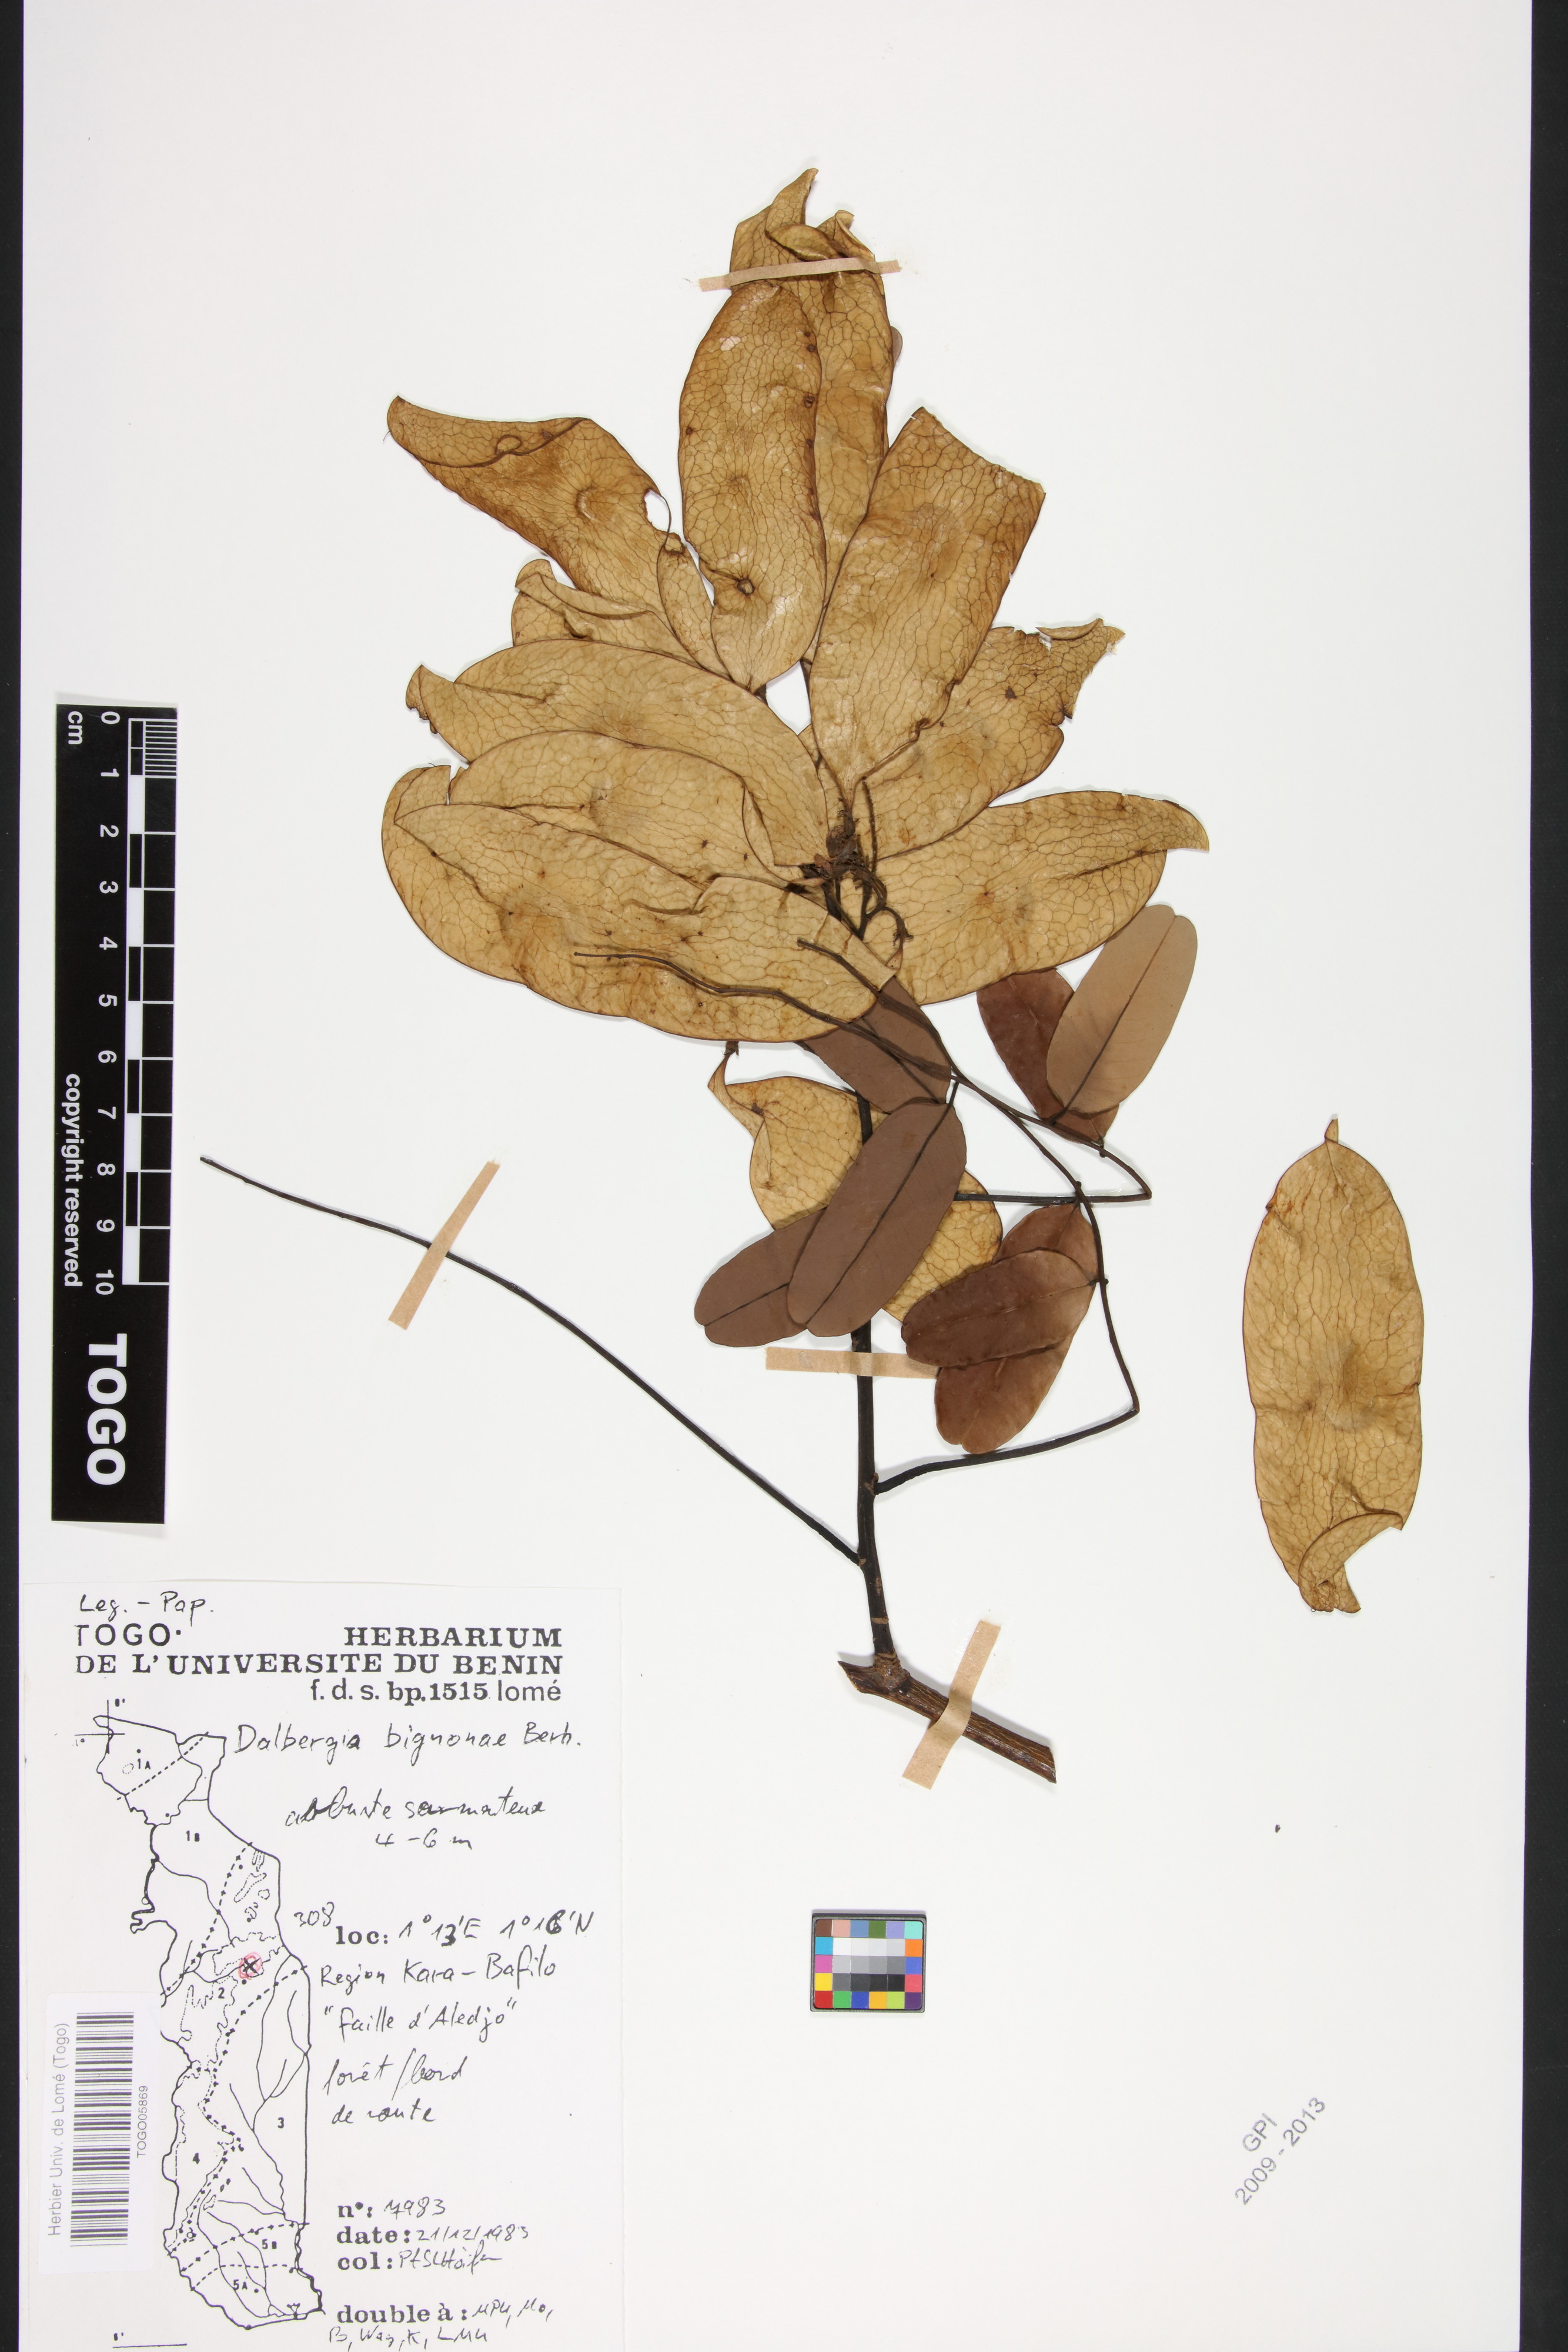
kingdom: Plantae
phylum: Tracheophyta
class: Magnoliopsida
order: Fabales
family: Fabaceae
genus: Dalbergia
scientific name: Dalbergia mayumbensis
